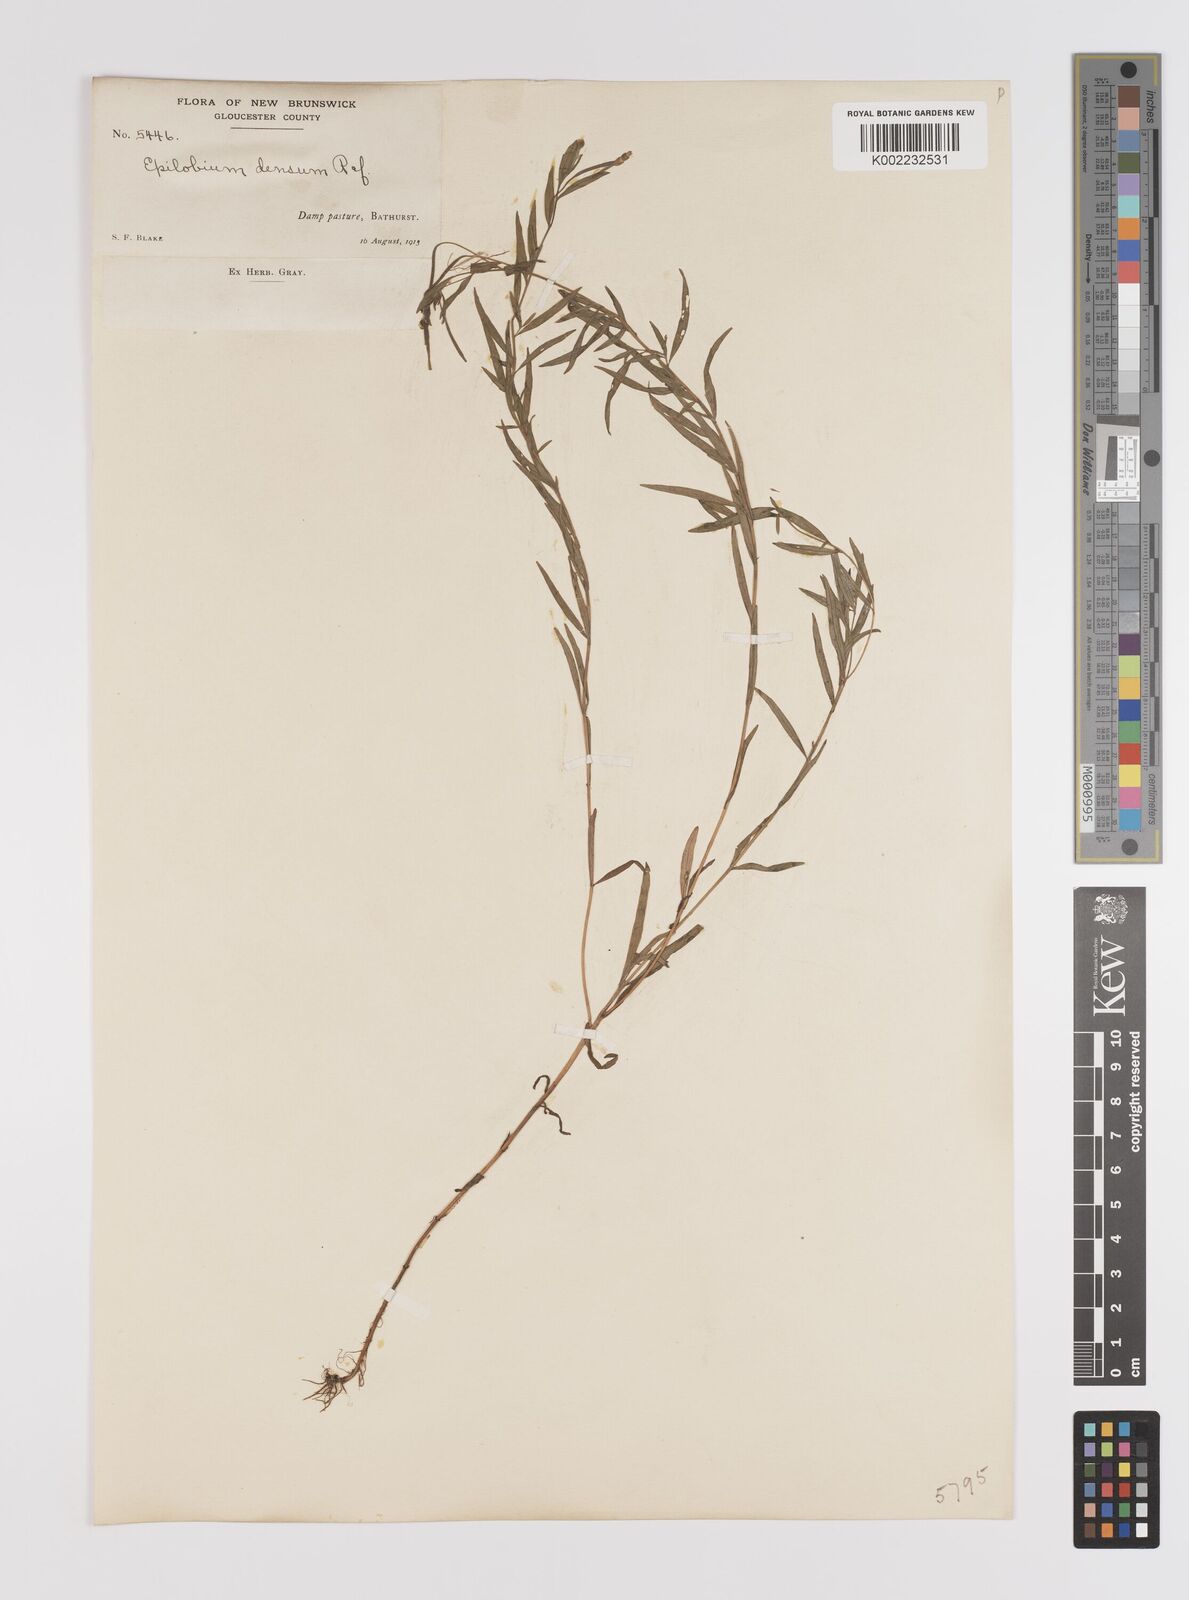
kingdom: Plantae
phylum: Tracheophyta
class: Magnoliopsida
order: Myrtales
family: Onagraceae
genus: Epilobium
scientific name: Epilobium densum
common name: Downy willowherb
